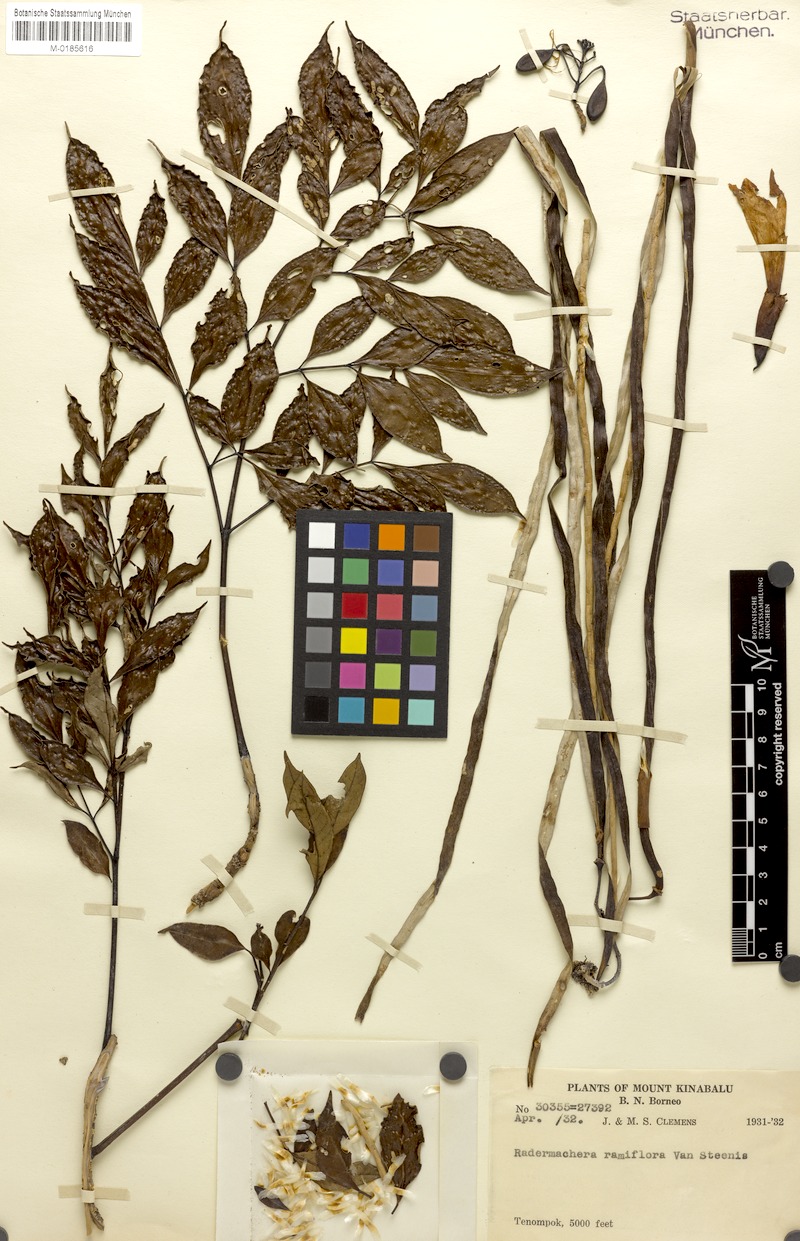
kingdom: Plantae
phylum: Tracheophyta
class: Magnoliopsida
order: Lamiales
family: Bignoniaceae
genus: Radermachera
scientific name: Radermachera ramiflora
